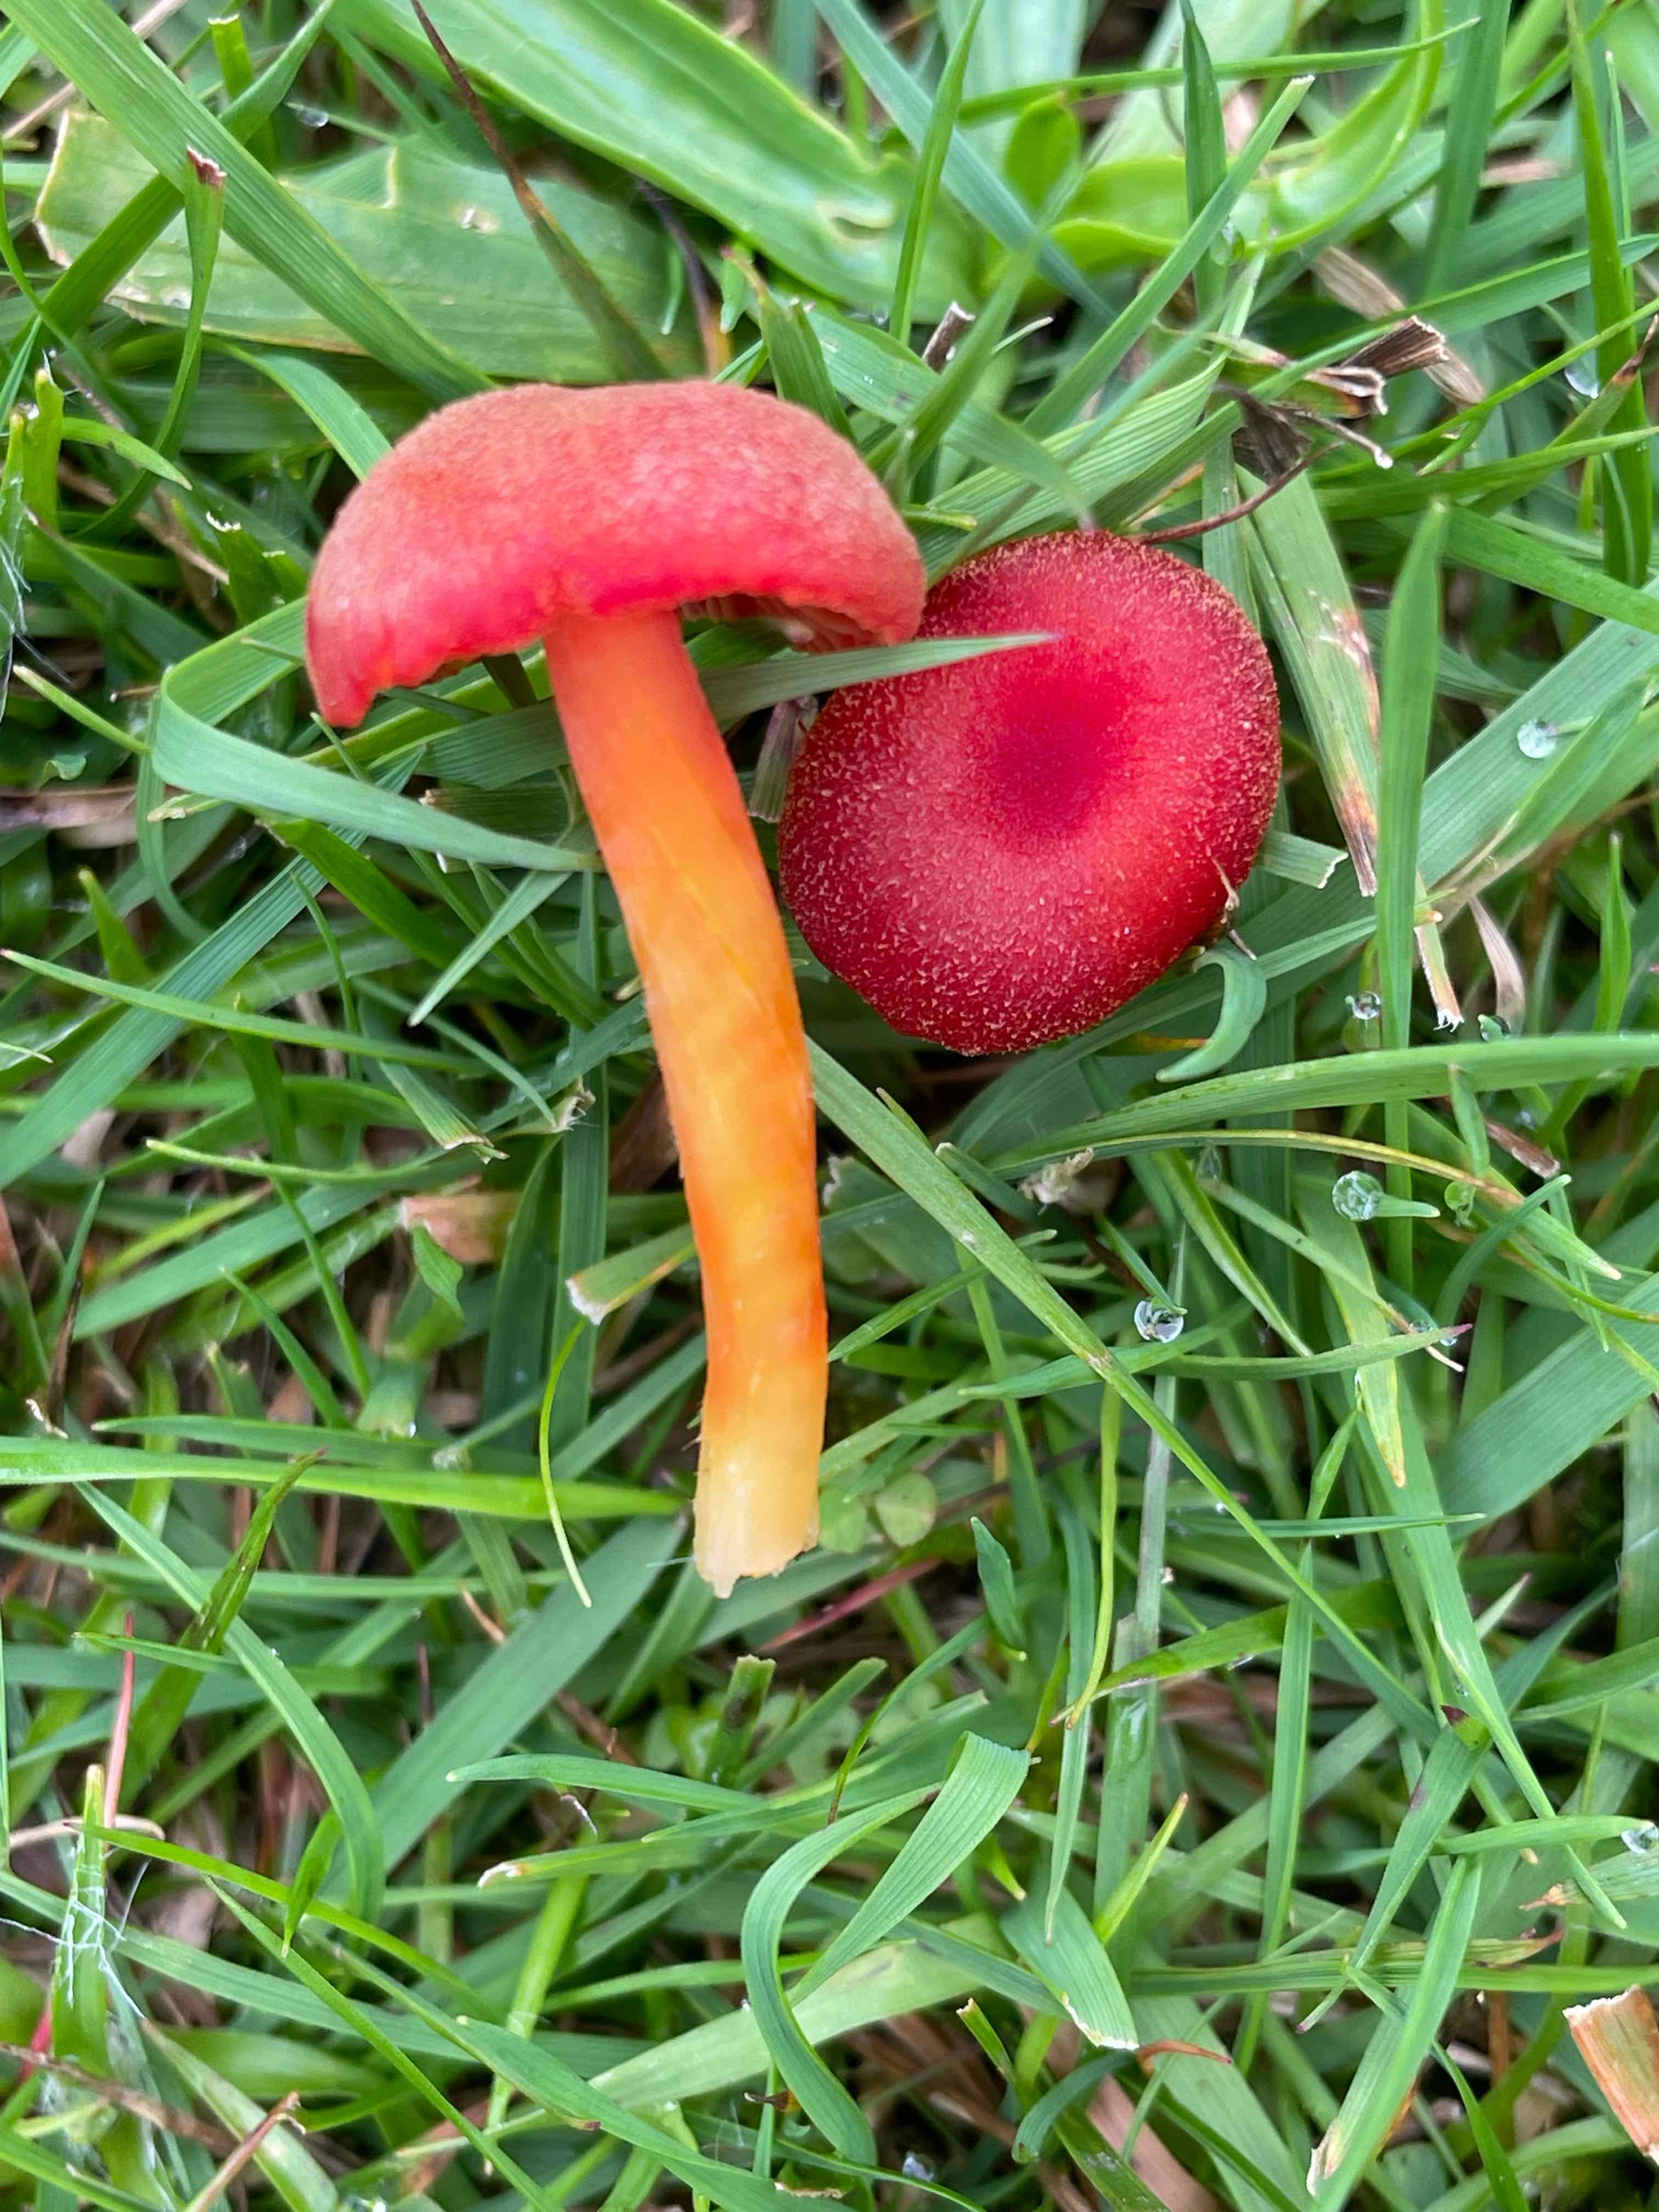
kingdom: Fungi
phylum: Basidiomycota
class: Agaricomycetes
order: Agaricales
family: Hygrophoraceae
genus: Hygrocybe
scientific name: Hygrocybe
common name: vokshat
